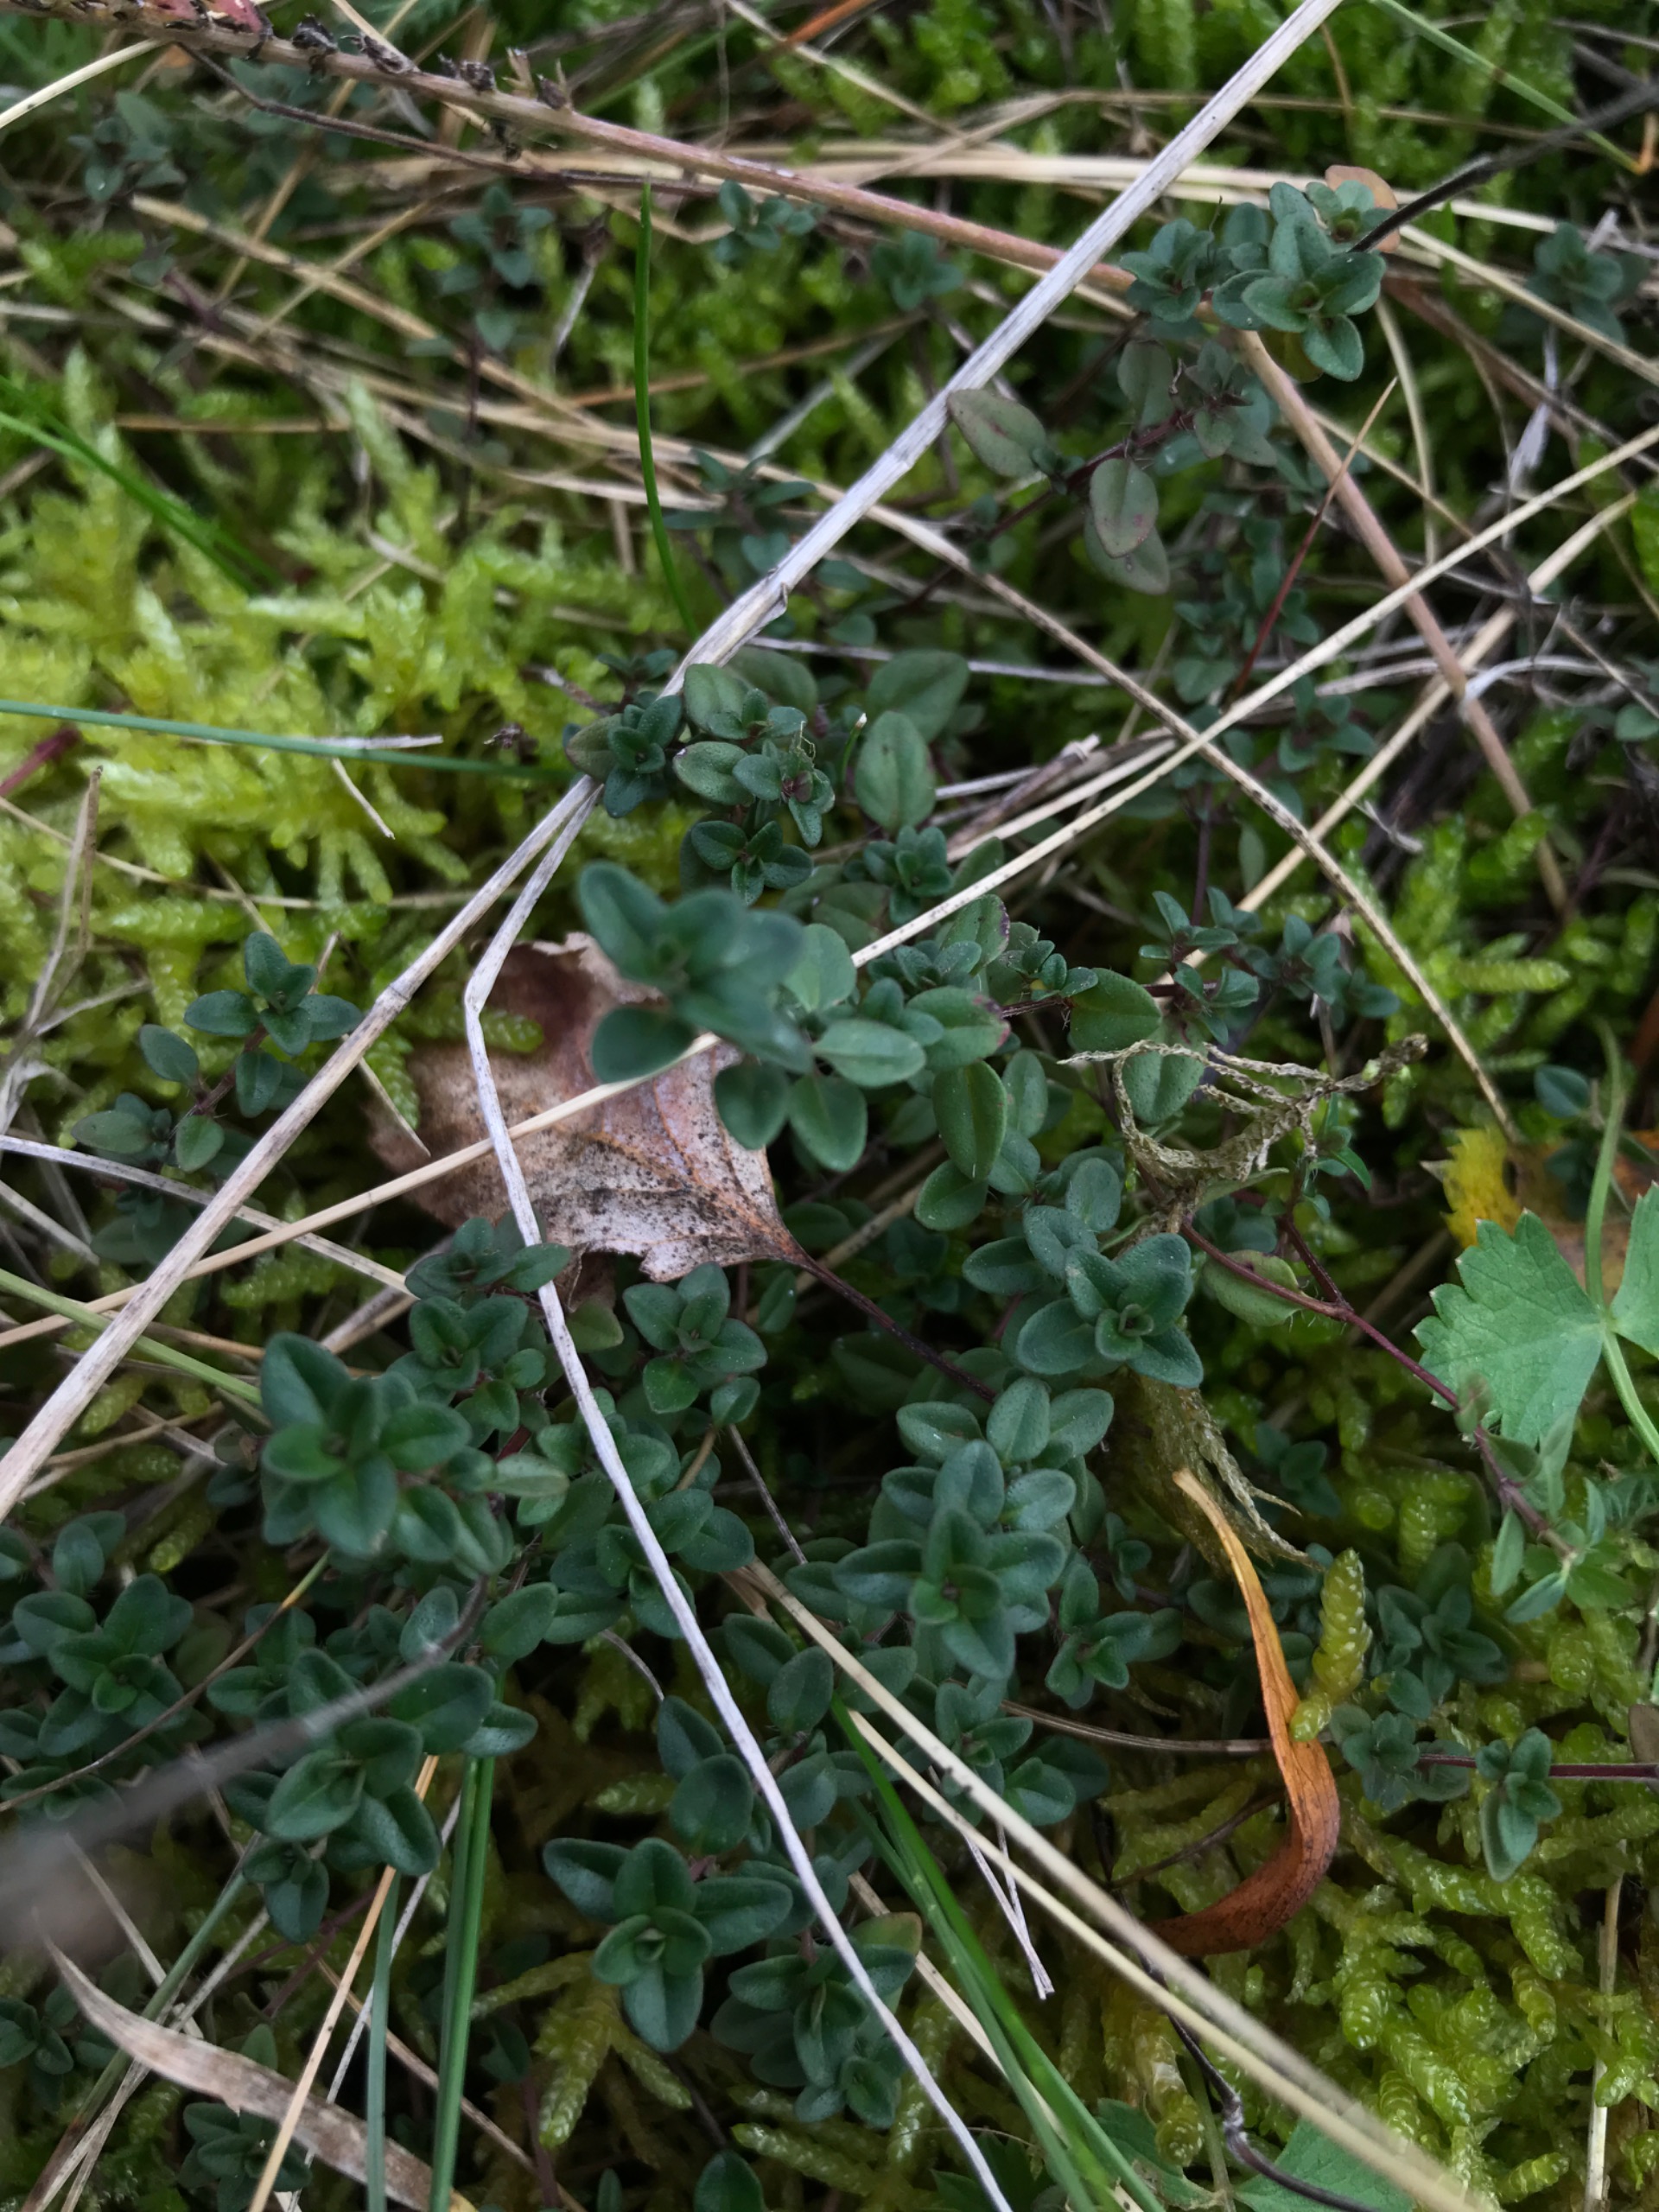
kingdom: Plantae
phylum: Tracheophyta
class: Magnoliopsida
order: Lamiales
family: Lamiaceae
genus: Thymus
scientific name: Thymus pulegioides
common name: Bredbladet timian
